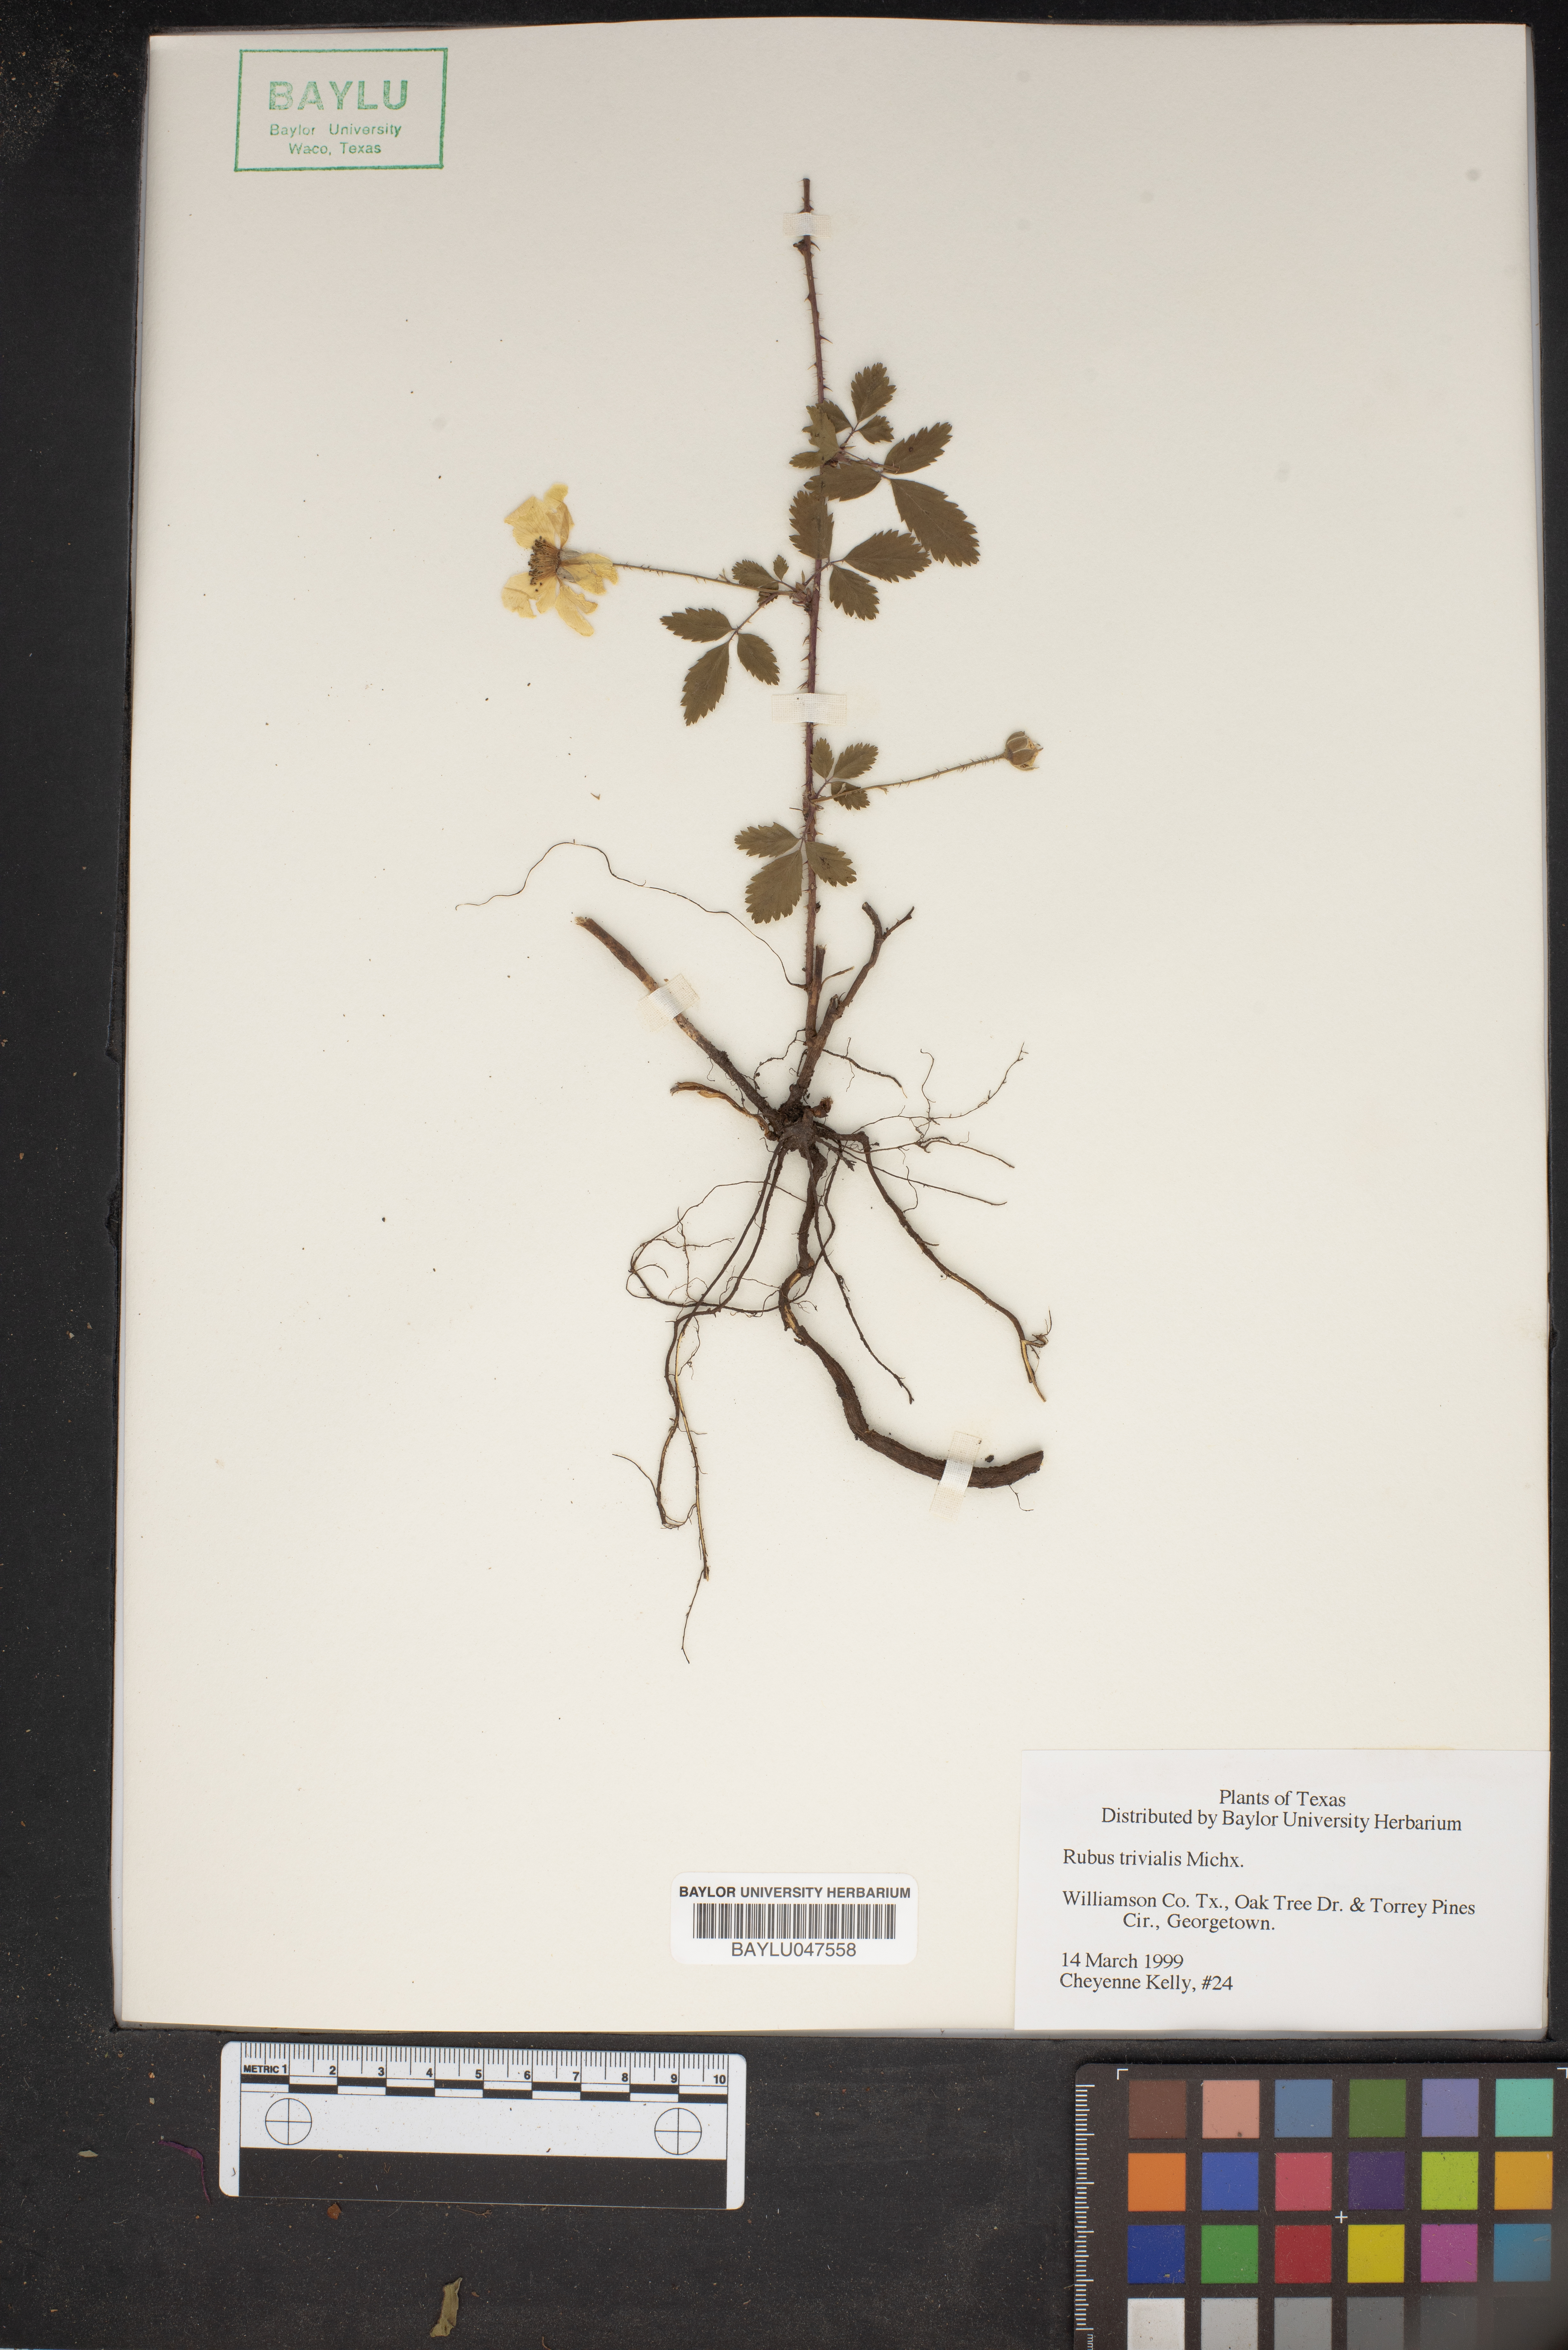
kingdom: Plantae
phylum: Tracheophyta
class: Magnoliopsida
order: Rosales
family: Rosaceae
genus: Rubus
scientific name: Rubus trivialis
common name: Southern dewberry
